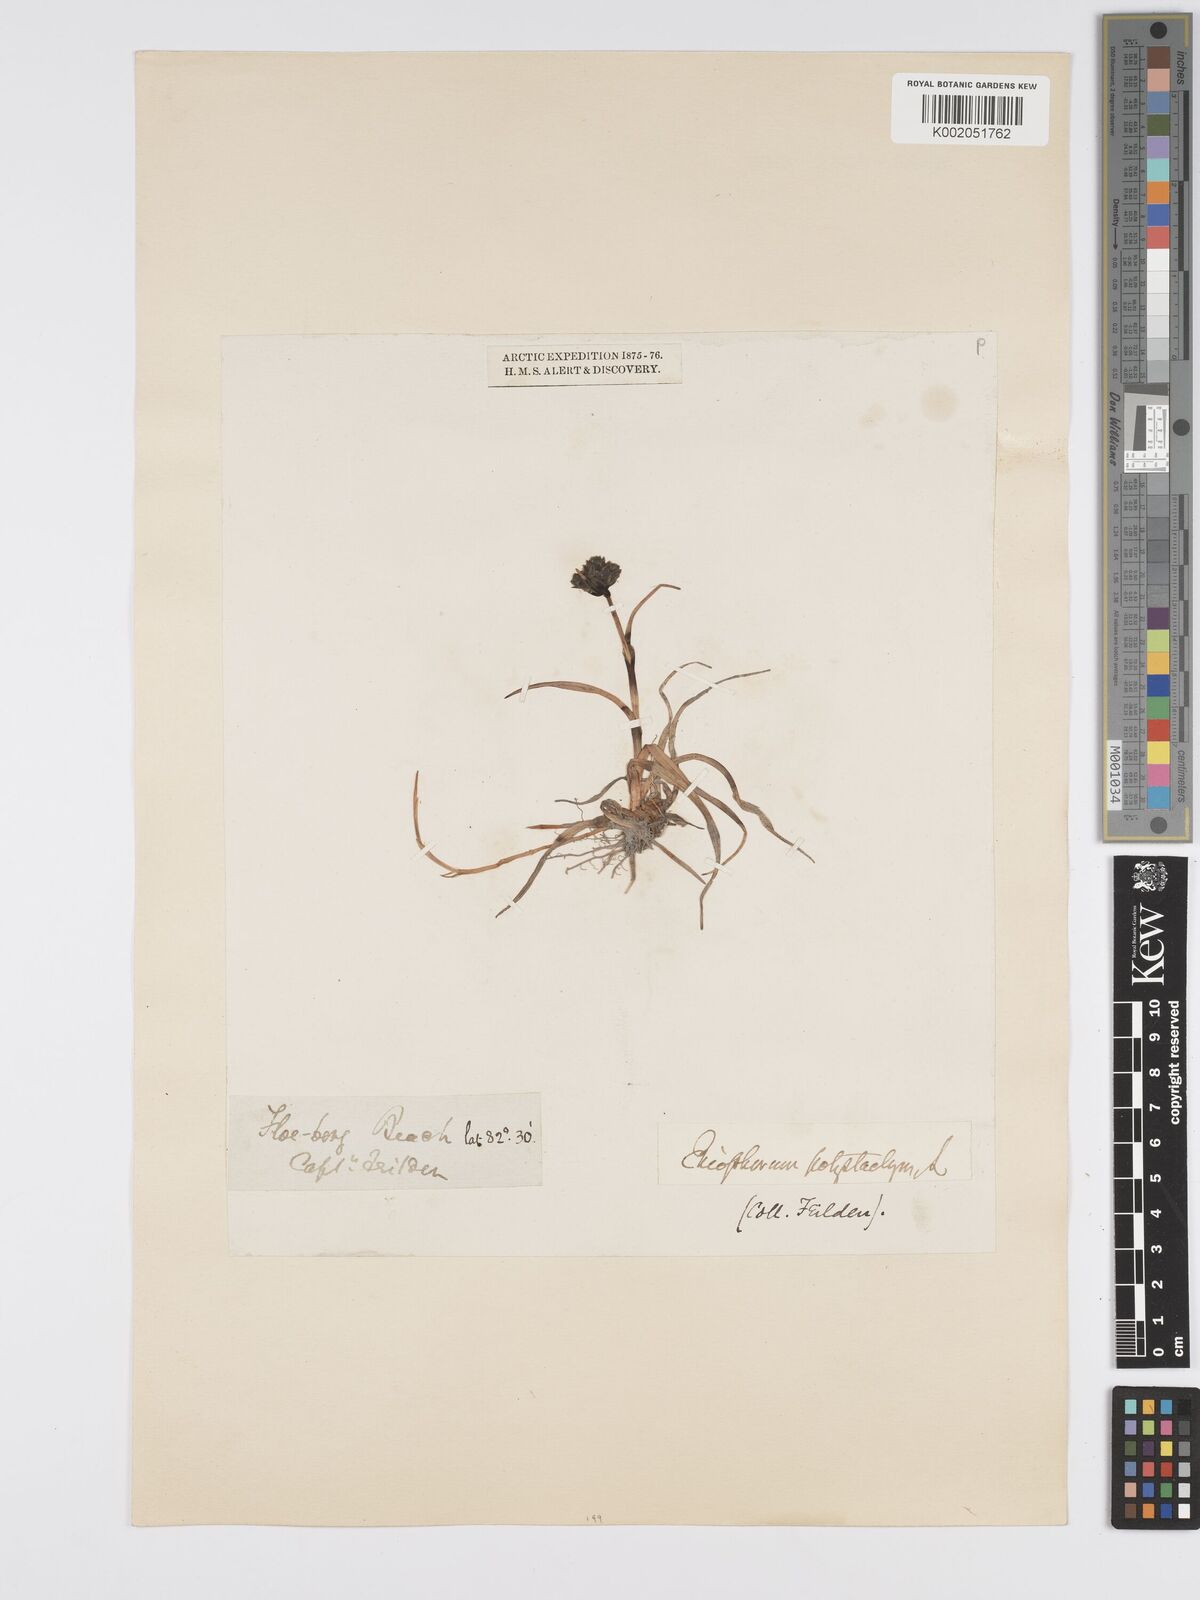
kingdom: Plantae
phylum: Tracheophyta
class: Liliopsida
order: Poales
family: Cyperaceae
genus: Eriophorum
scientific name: Eriophorum angustifolium
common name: Common cottongrass
